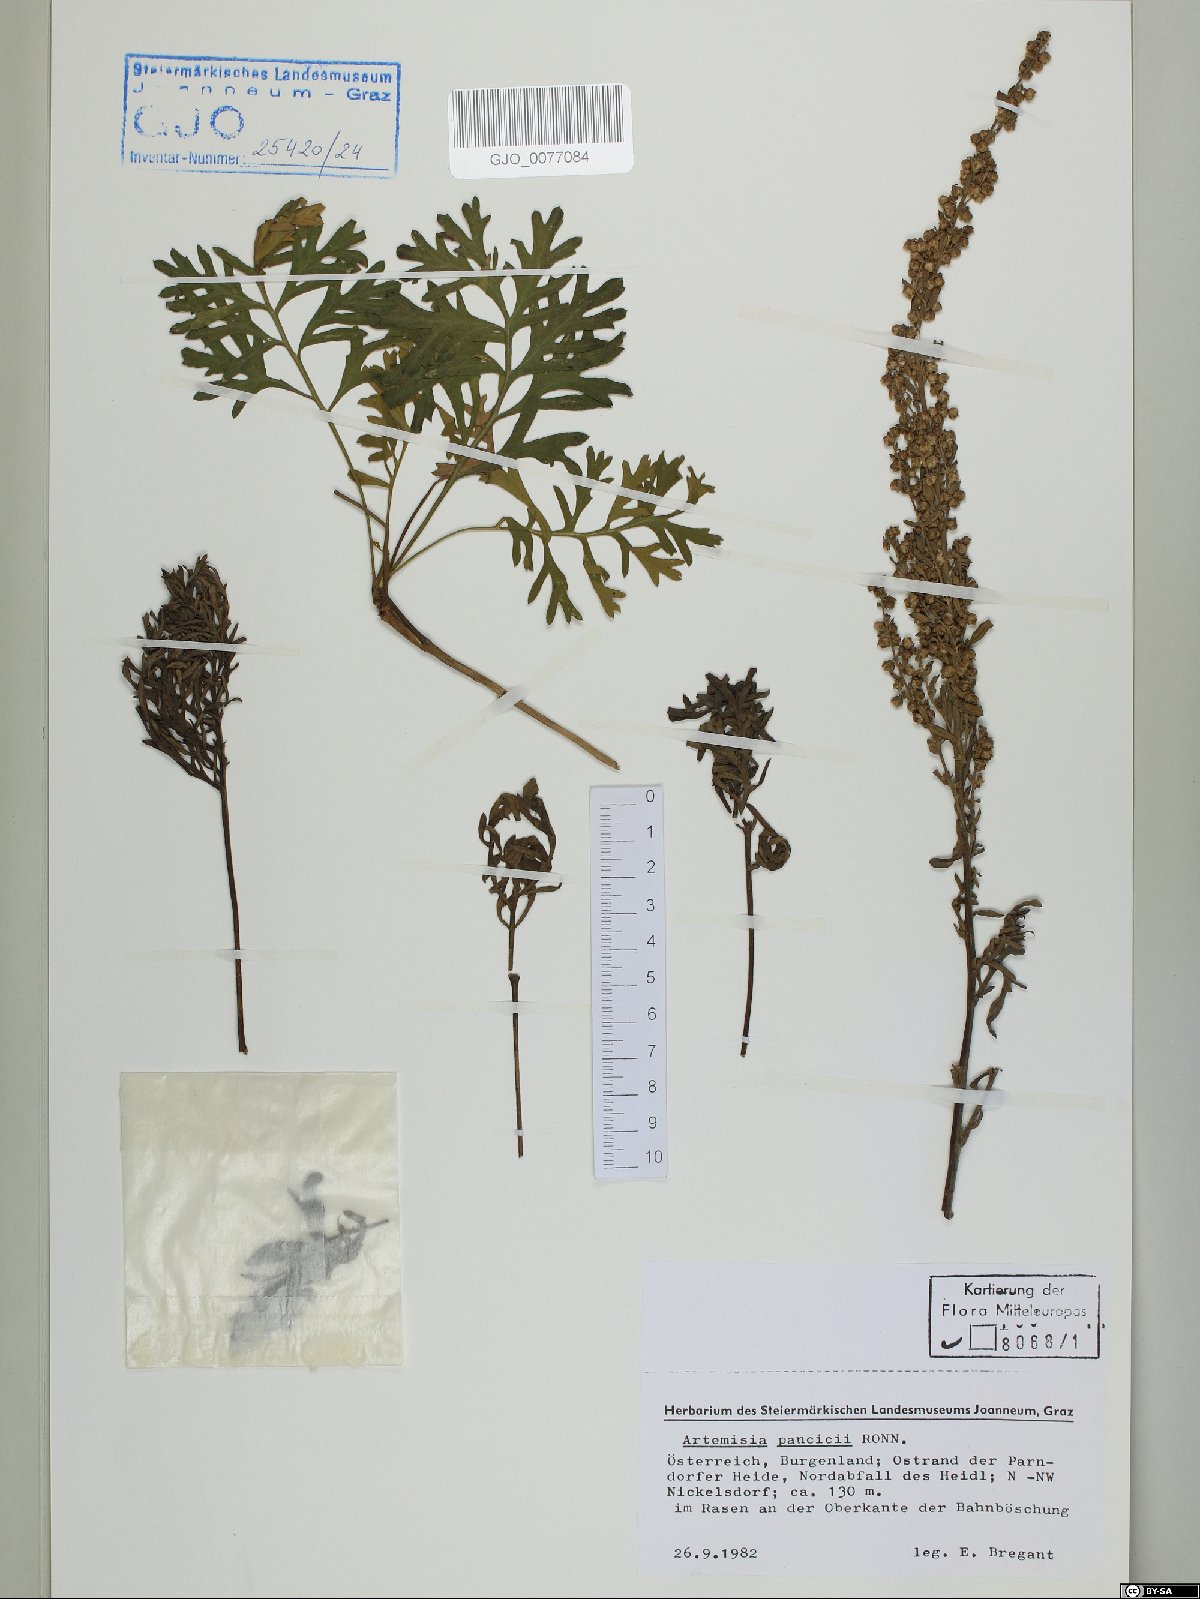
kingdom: Plantae
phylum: Tracheophyta
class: Magnoliopsida
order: Asterales
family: Asteraceae
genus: Artemisia
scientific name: Artemisia pancicii
